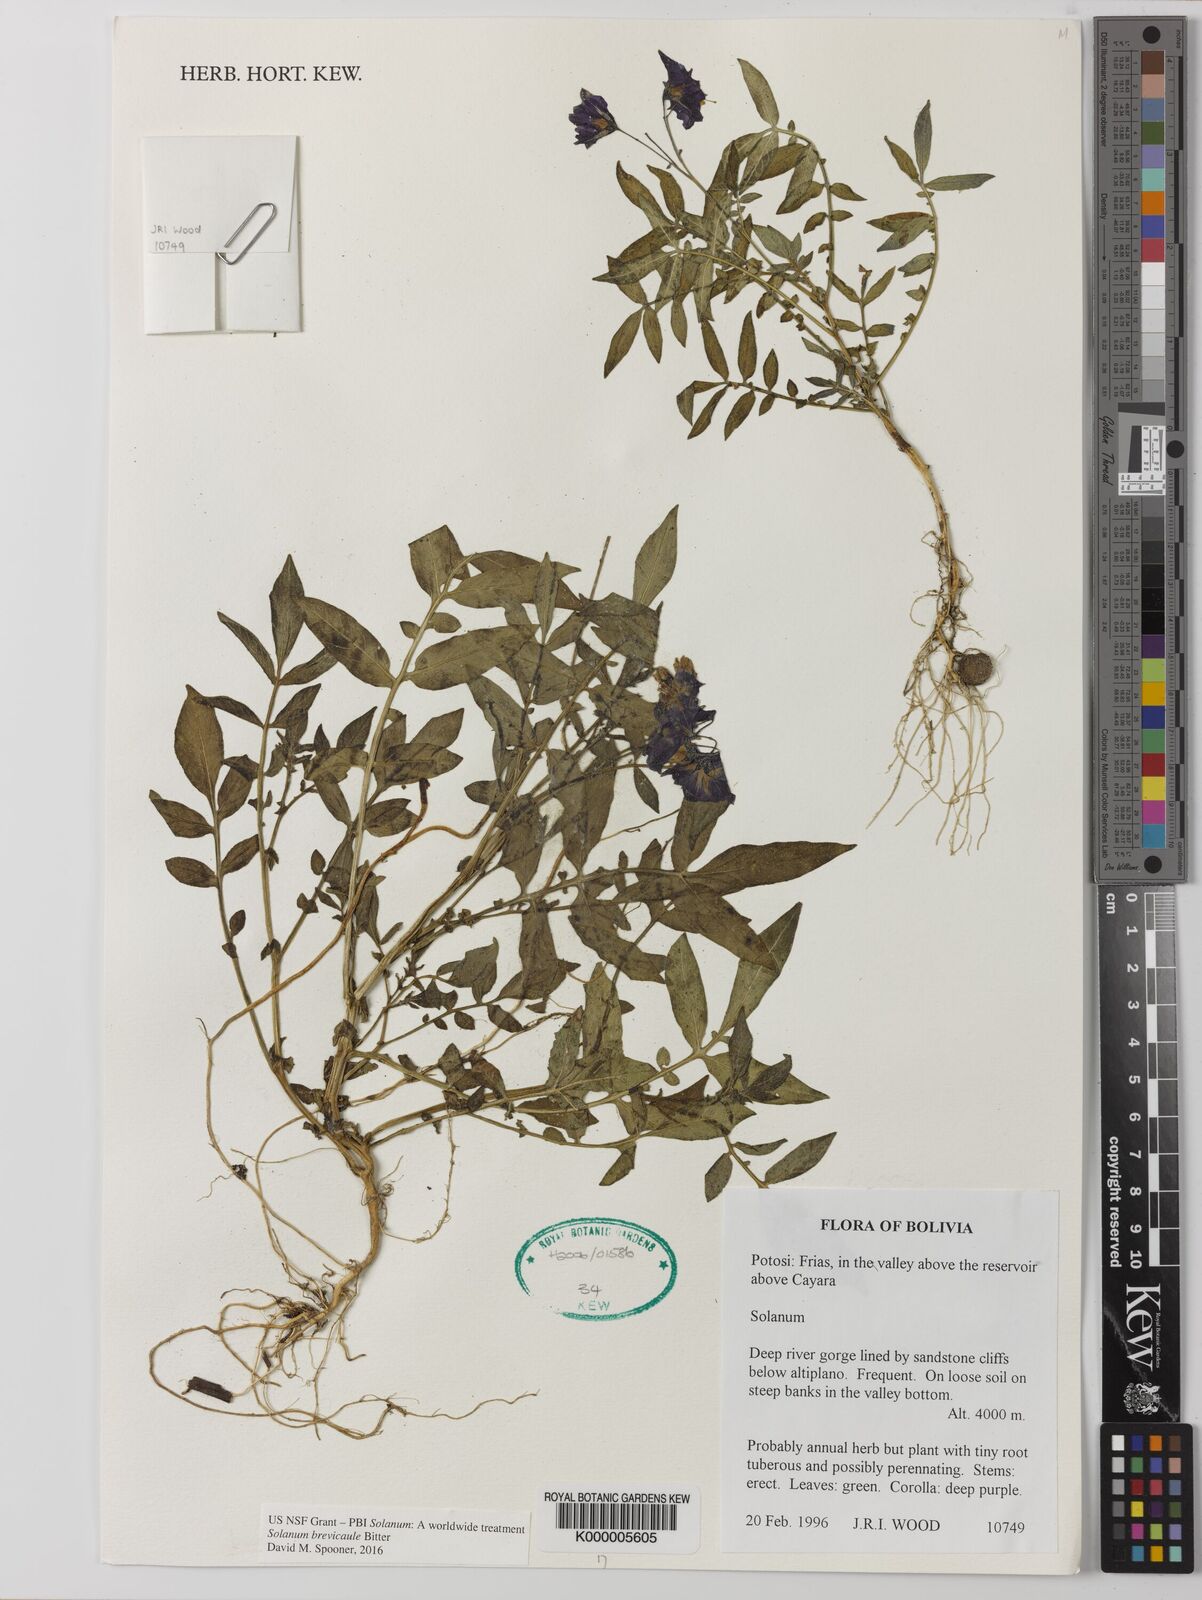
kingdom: Plantae
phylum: Tracheophyta
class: Magnoliopsida
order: Solanales
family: Solanaceae
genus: Solanum
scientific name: Solanum brevicaule
